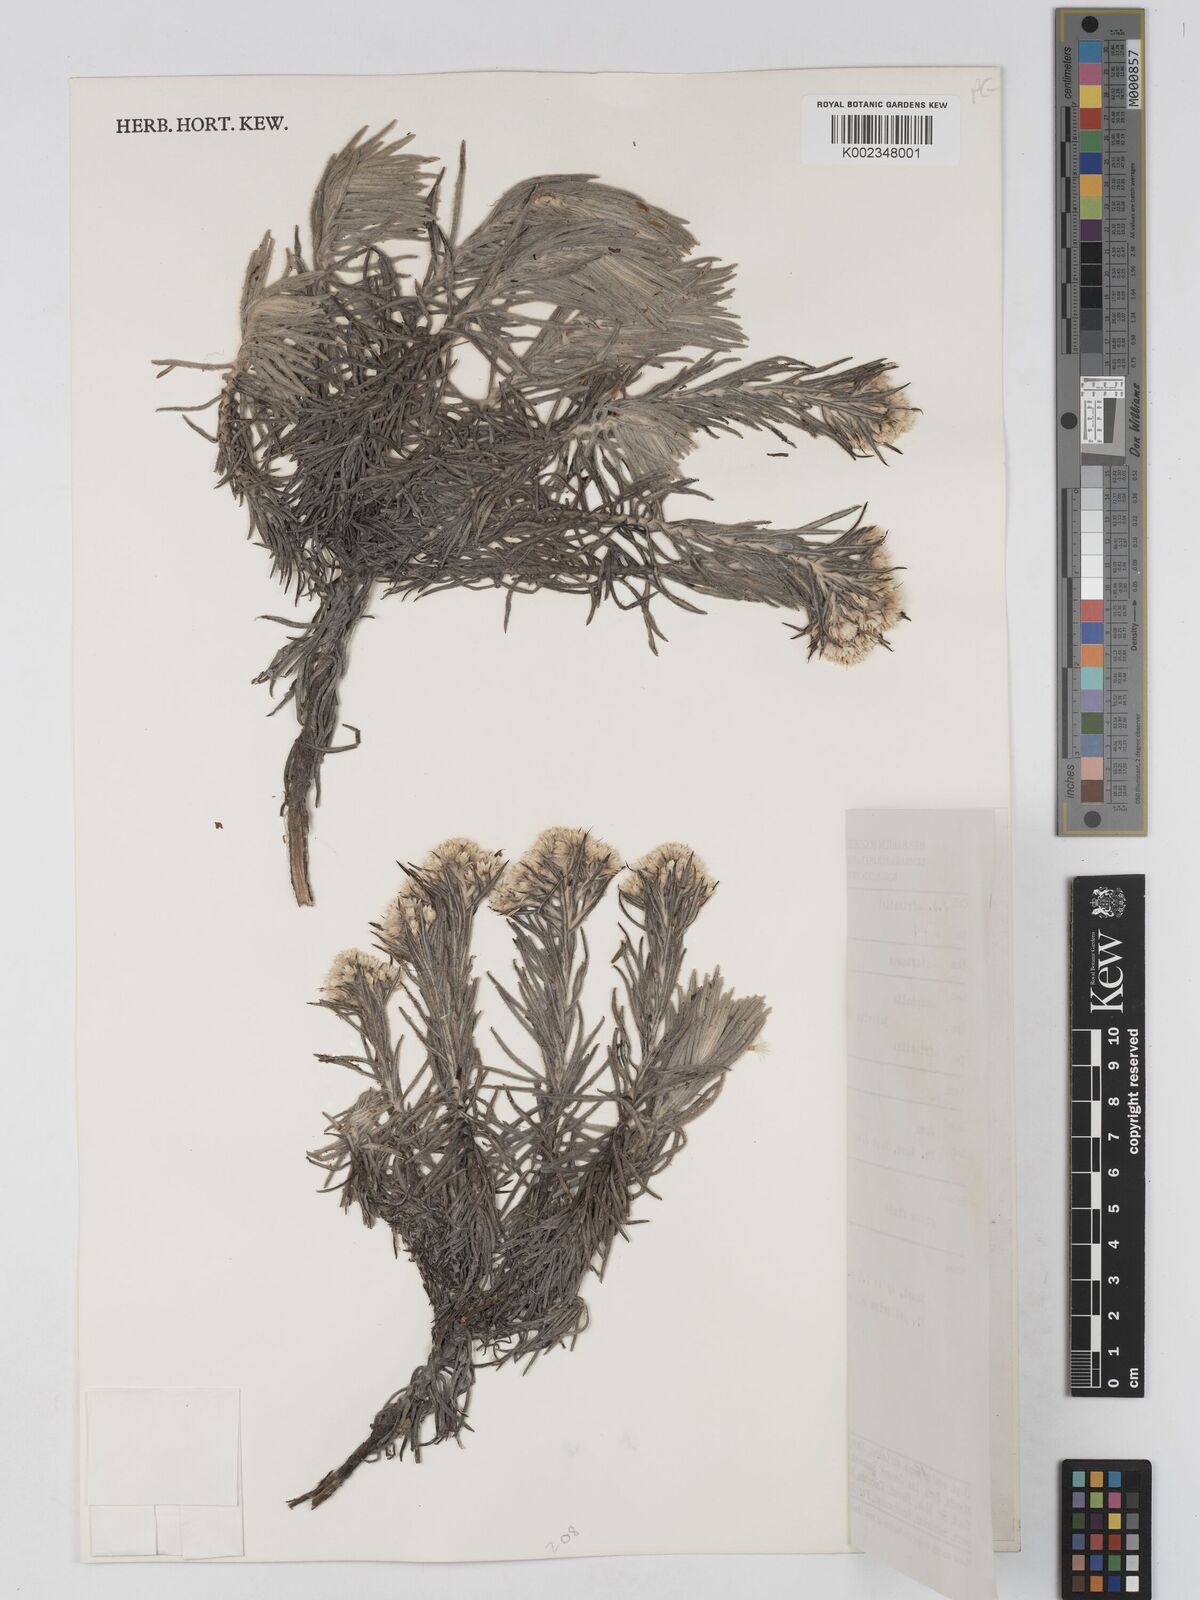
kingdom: Plantae
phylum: Tracheophyta
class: Magnoliopsida
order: Asterales
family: Asteraceae
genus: Anaphalis
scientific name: Anaphalis javanica
